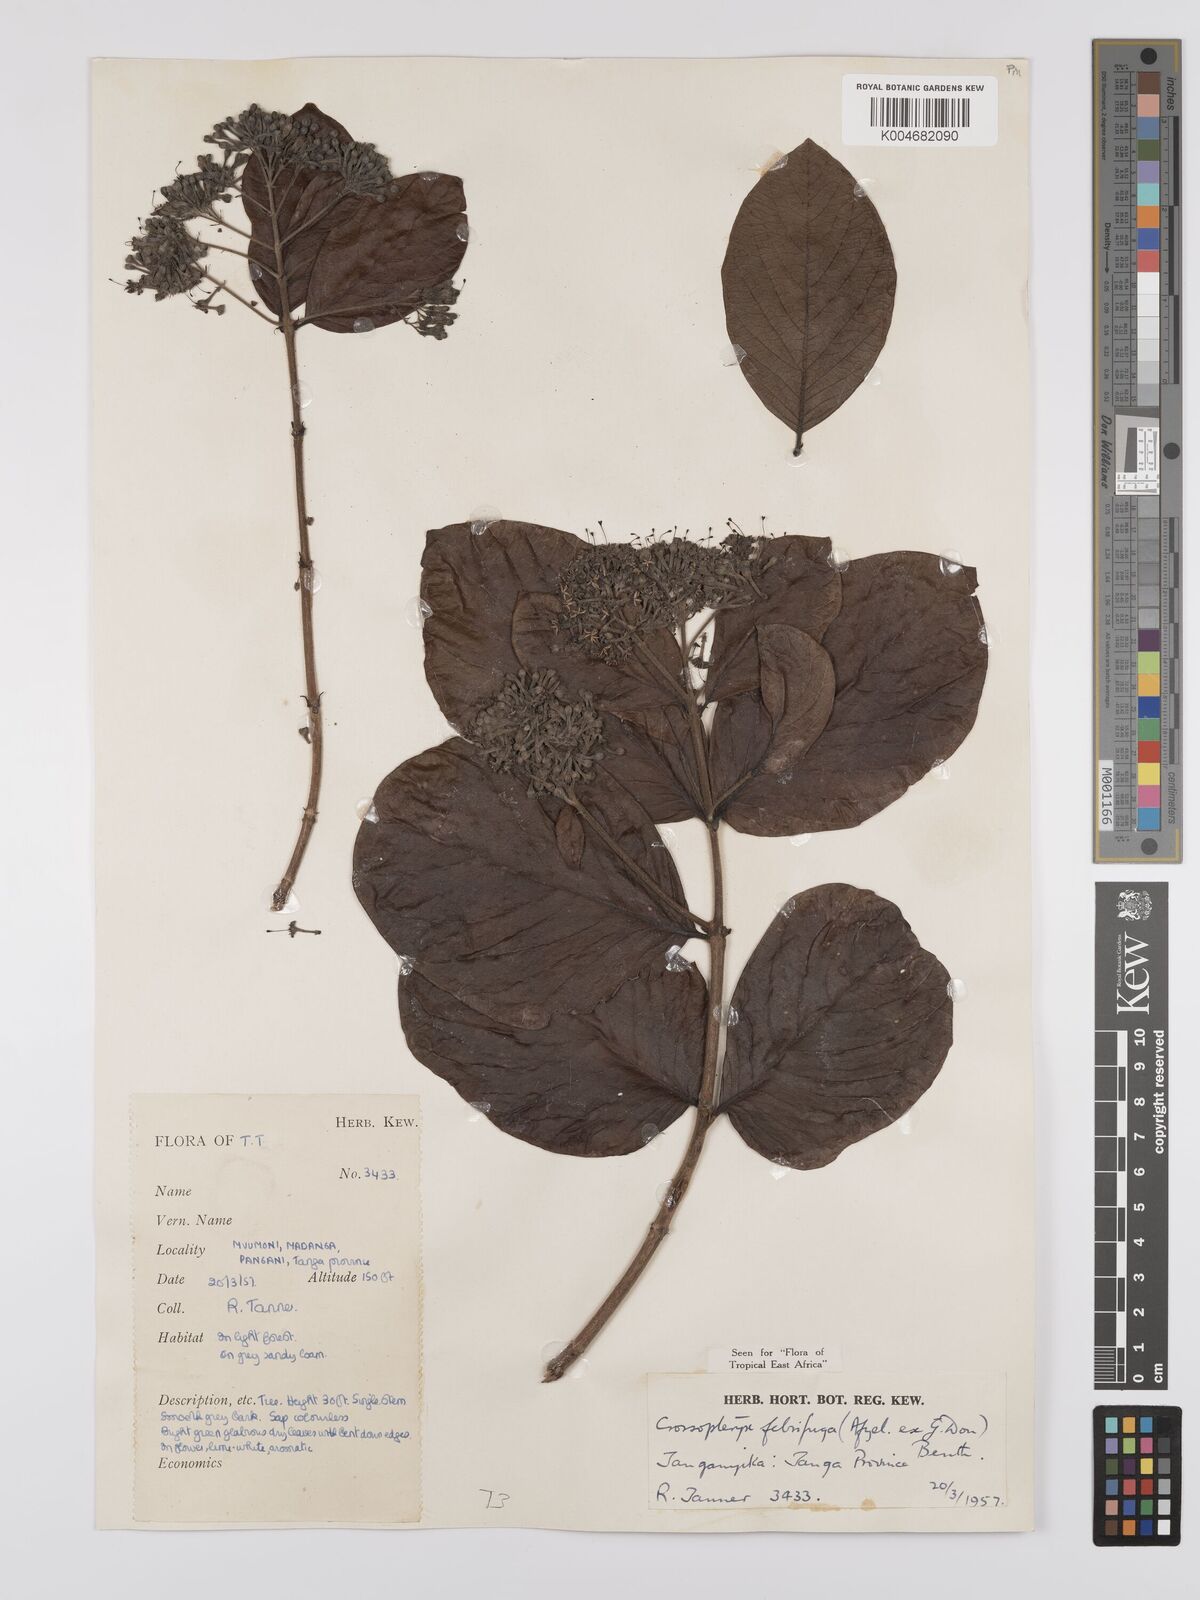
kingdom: Plantae
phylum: Tracheophyta
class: Magnoliopsida
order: Gentianales
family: Rubiaceae
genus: Crossopteryx
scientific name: Crossopteryx febrifuga
